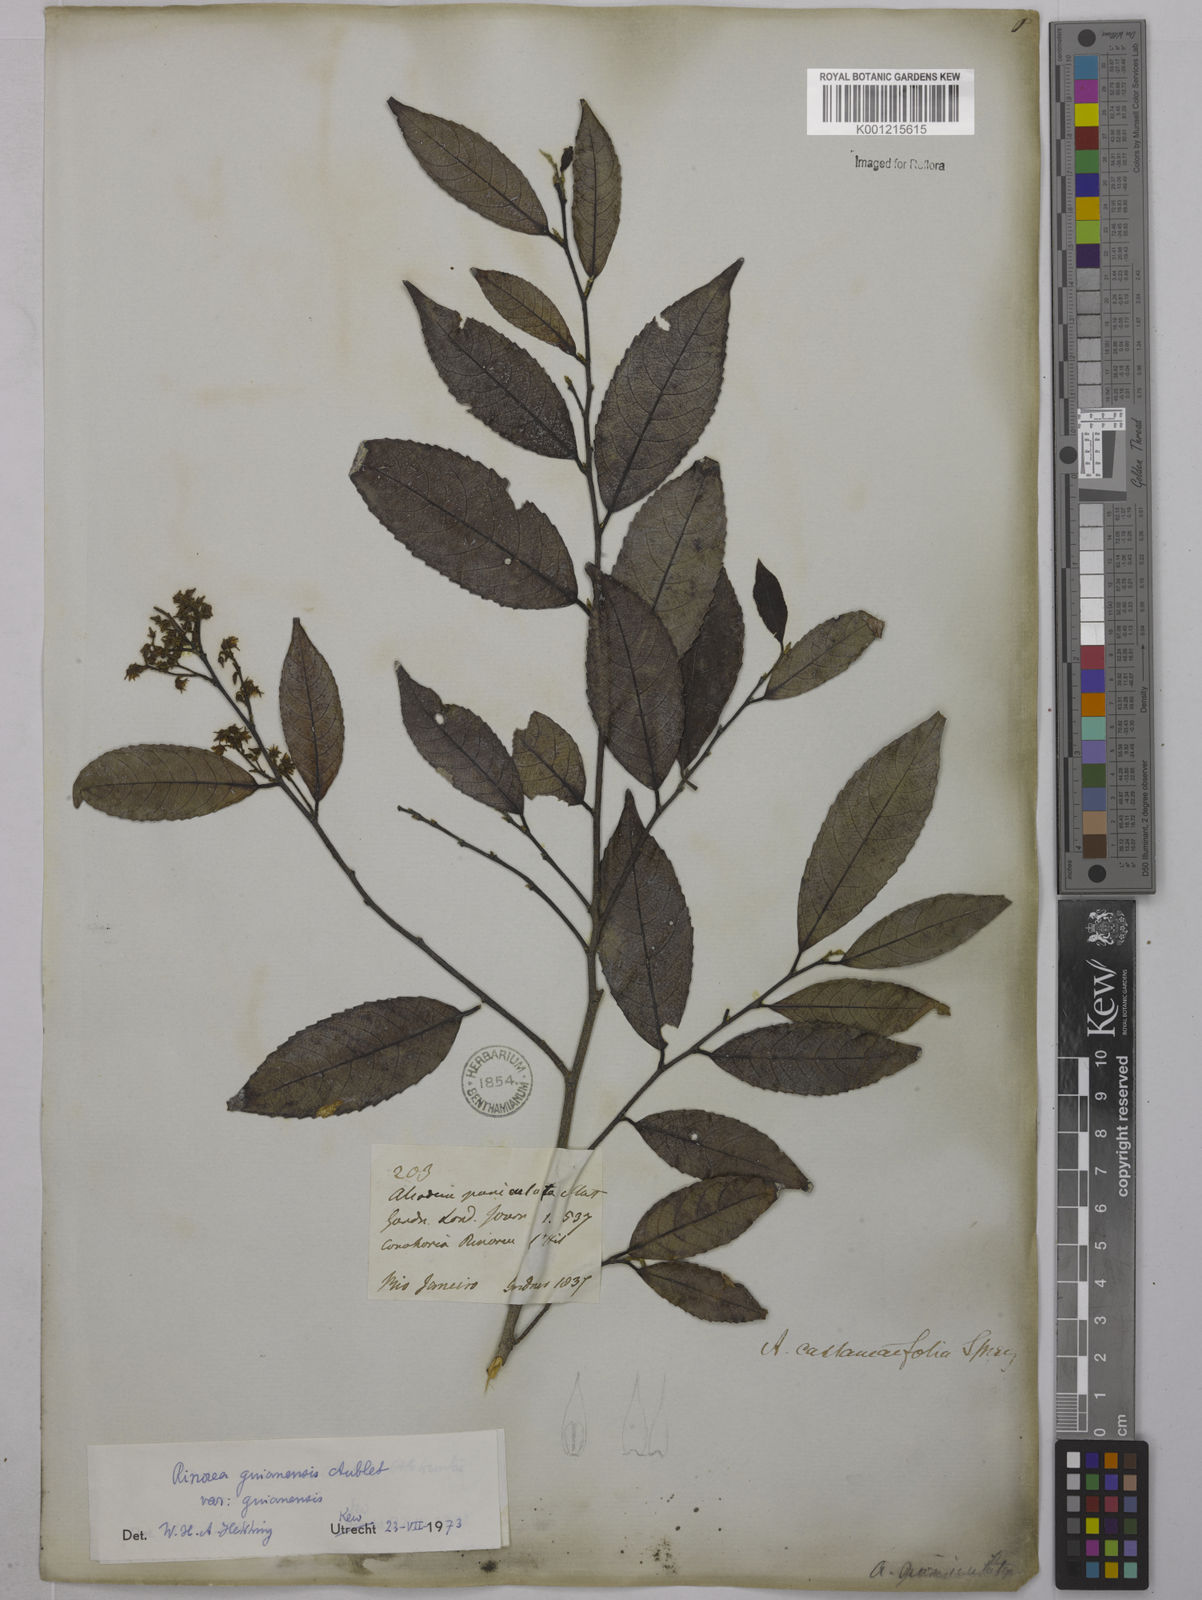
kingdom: Plantae
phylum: Tracheophyta
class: Magnoliopsida
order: Malpighiales
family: Violaceae
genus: Rinorea
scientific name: Rinorea guianensis
